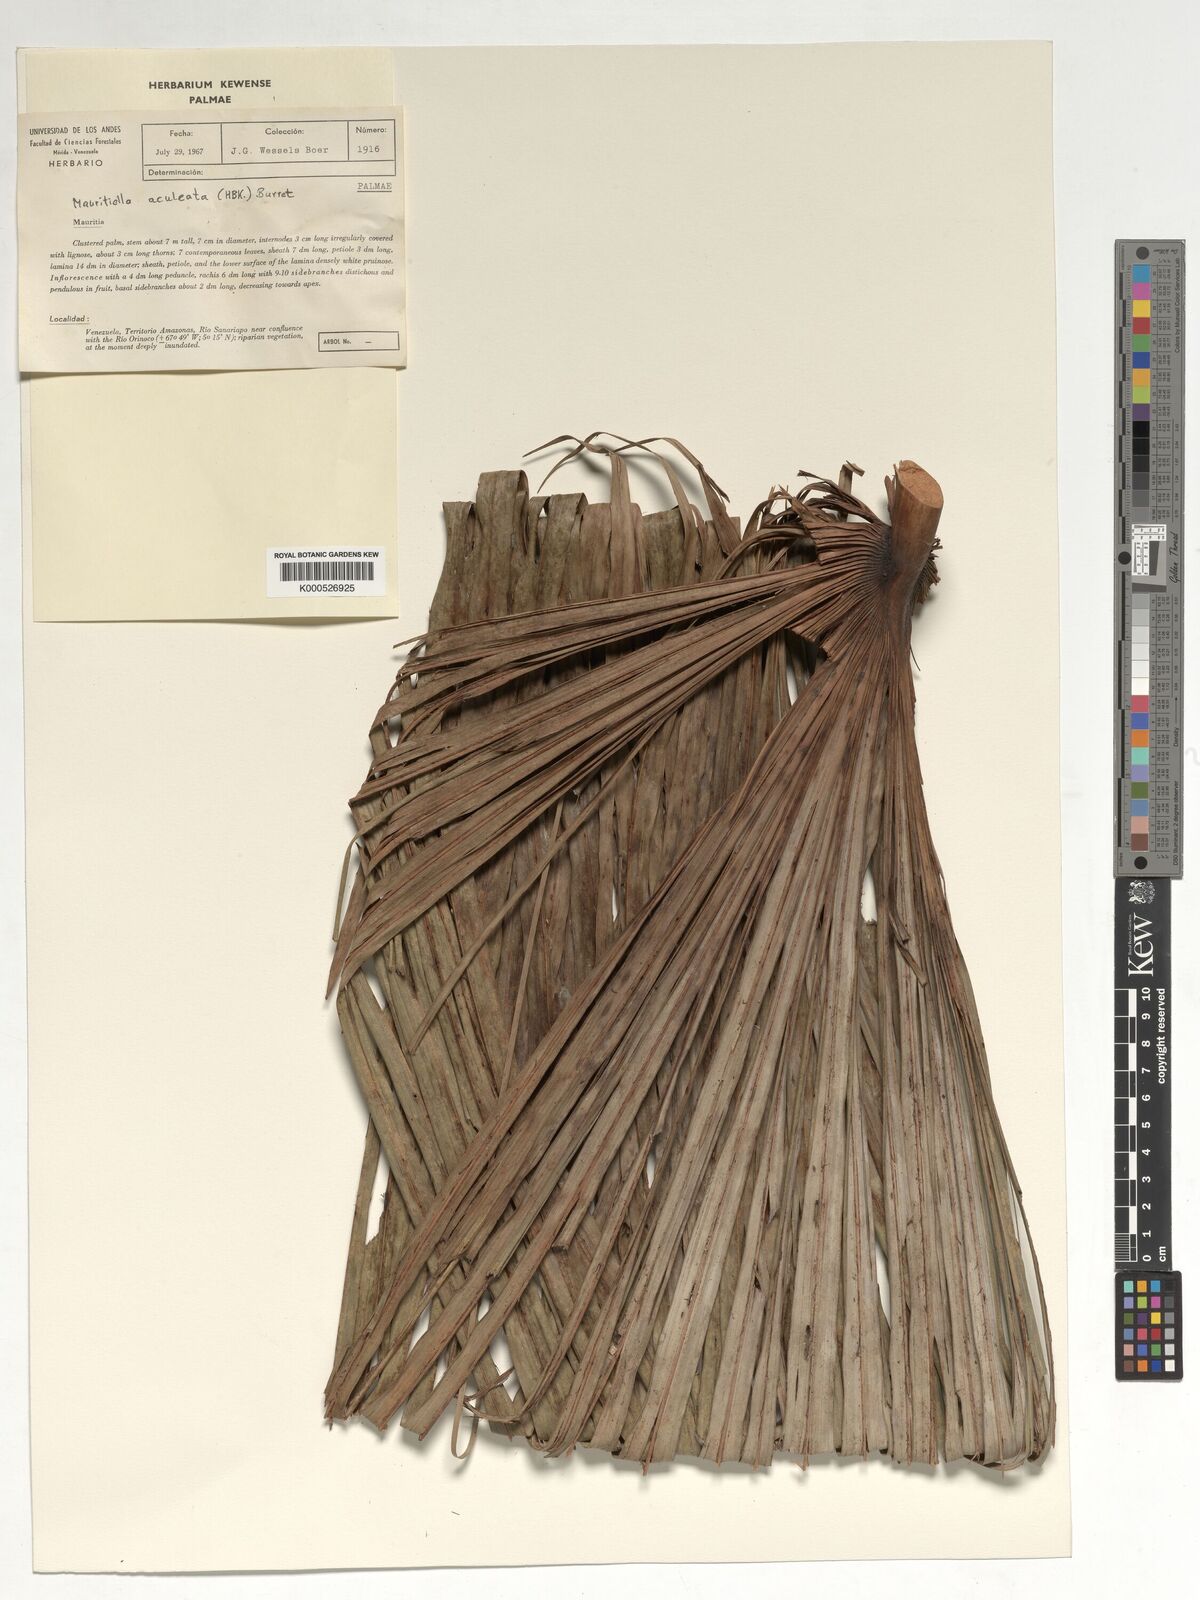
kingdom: Plantae
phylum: Tracheophyta
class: Liliopsida
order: Arecales
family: Arecaceae
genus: Mauritiella
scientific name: Mauritiella aculeata
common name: Buritirana
